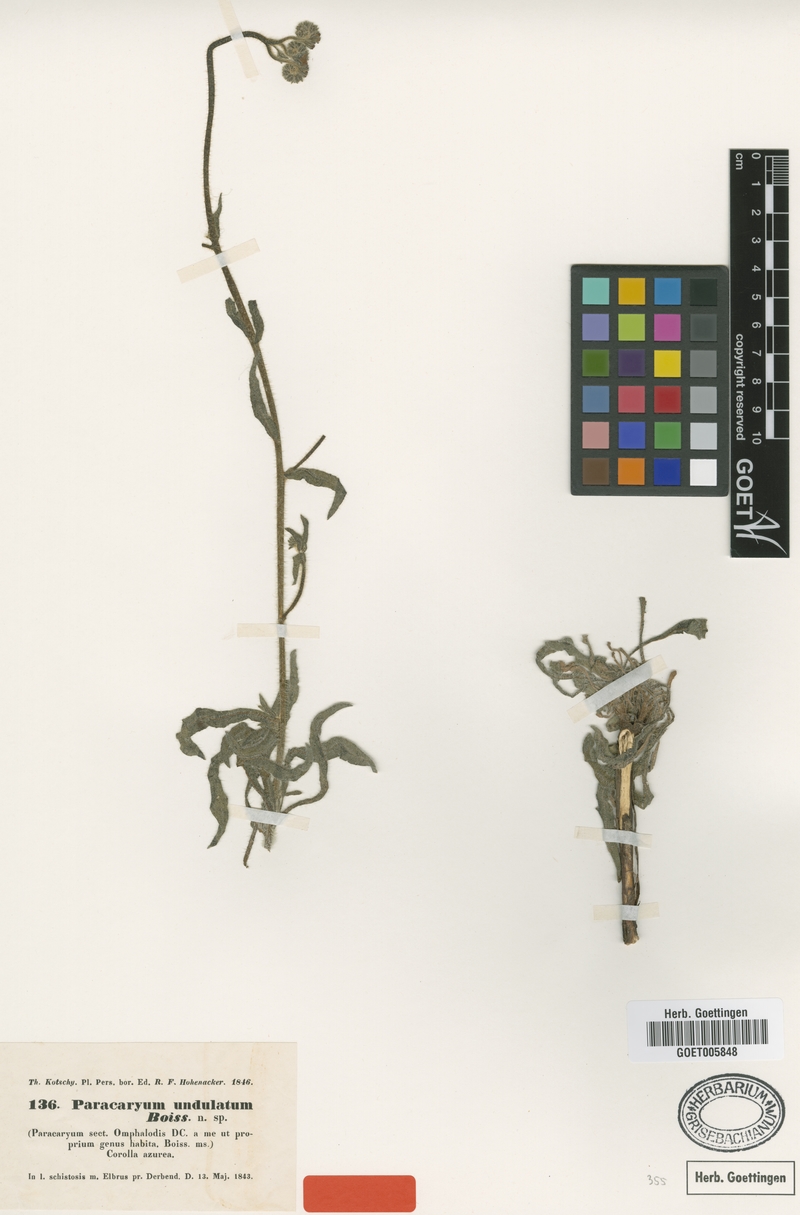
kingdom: Plantae
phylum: Tracheophyta
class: Magnoliopsida
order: Boraginales
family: Boraginaceae
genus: Paracaryum
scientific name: Paracaryum strictum
